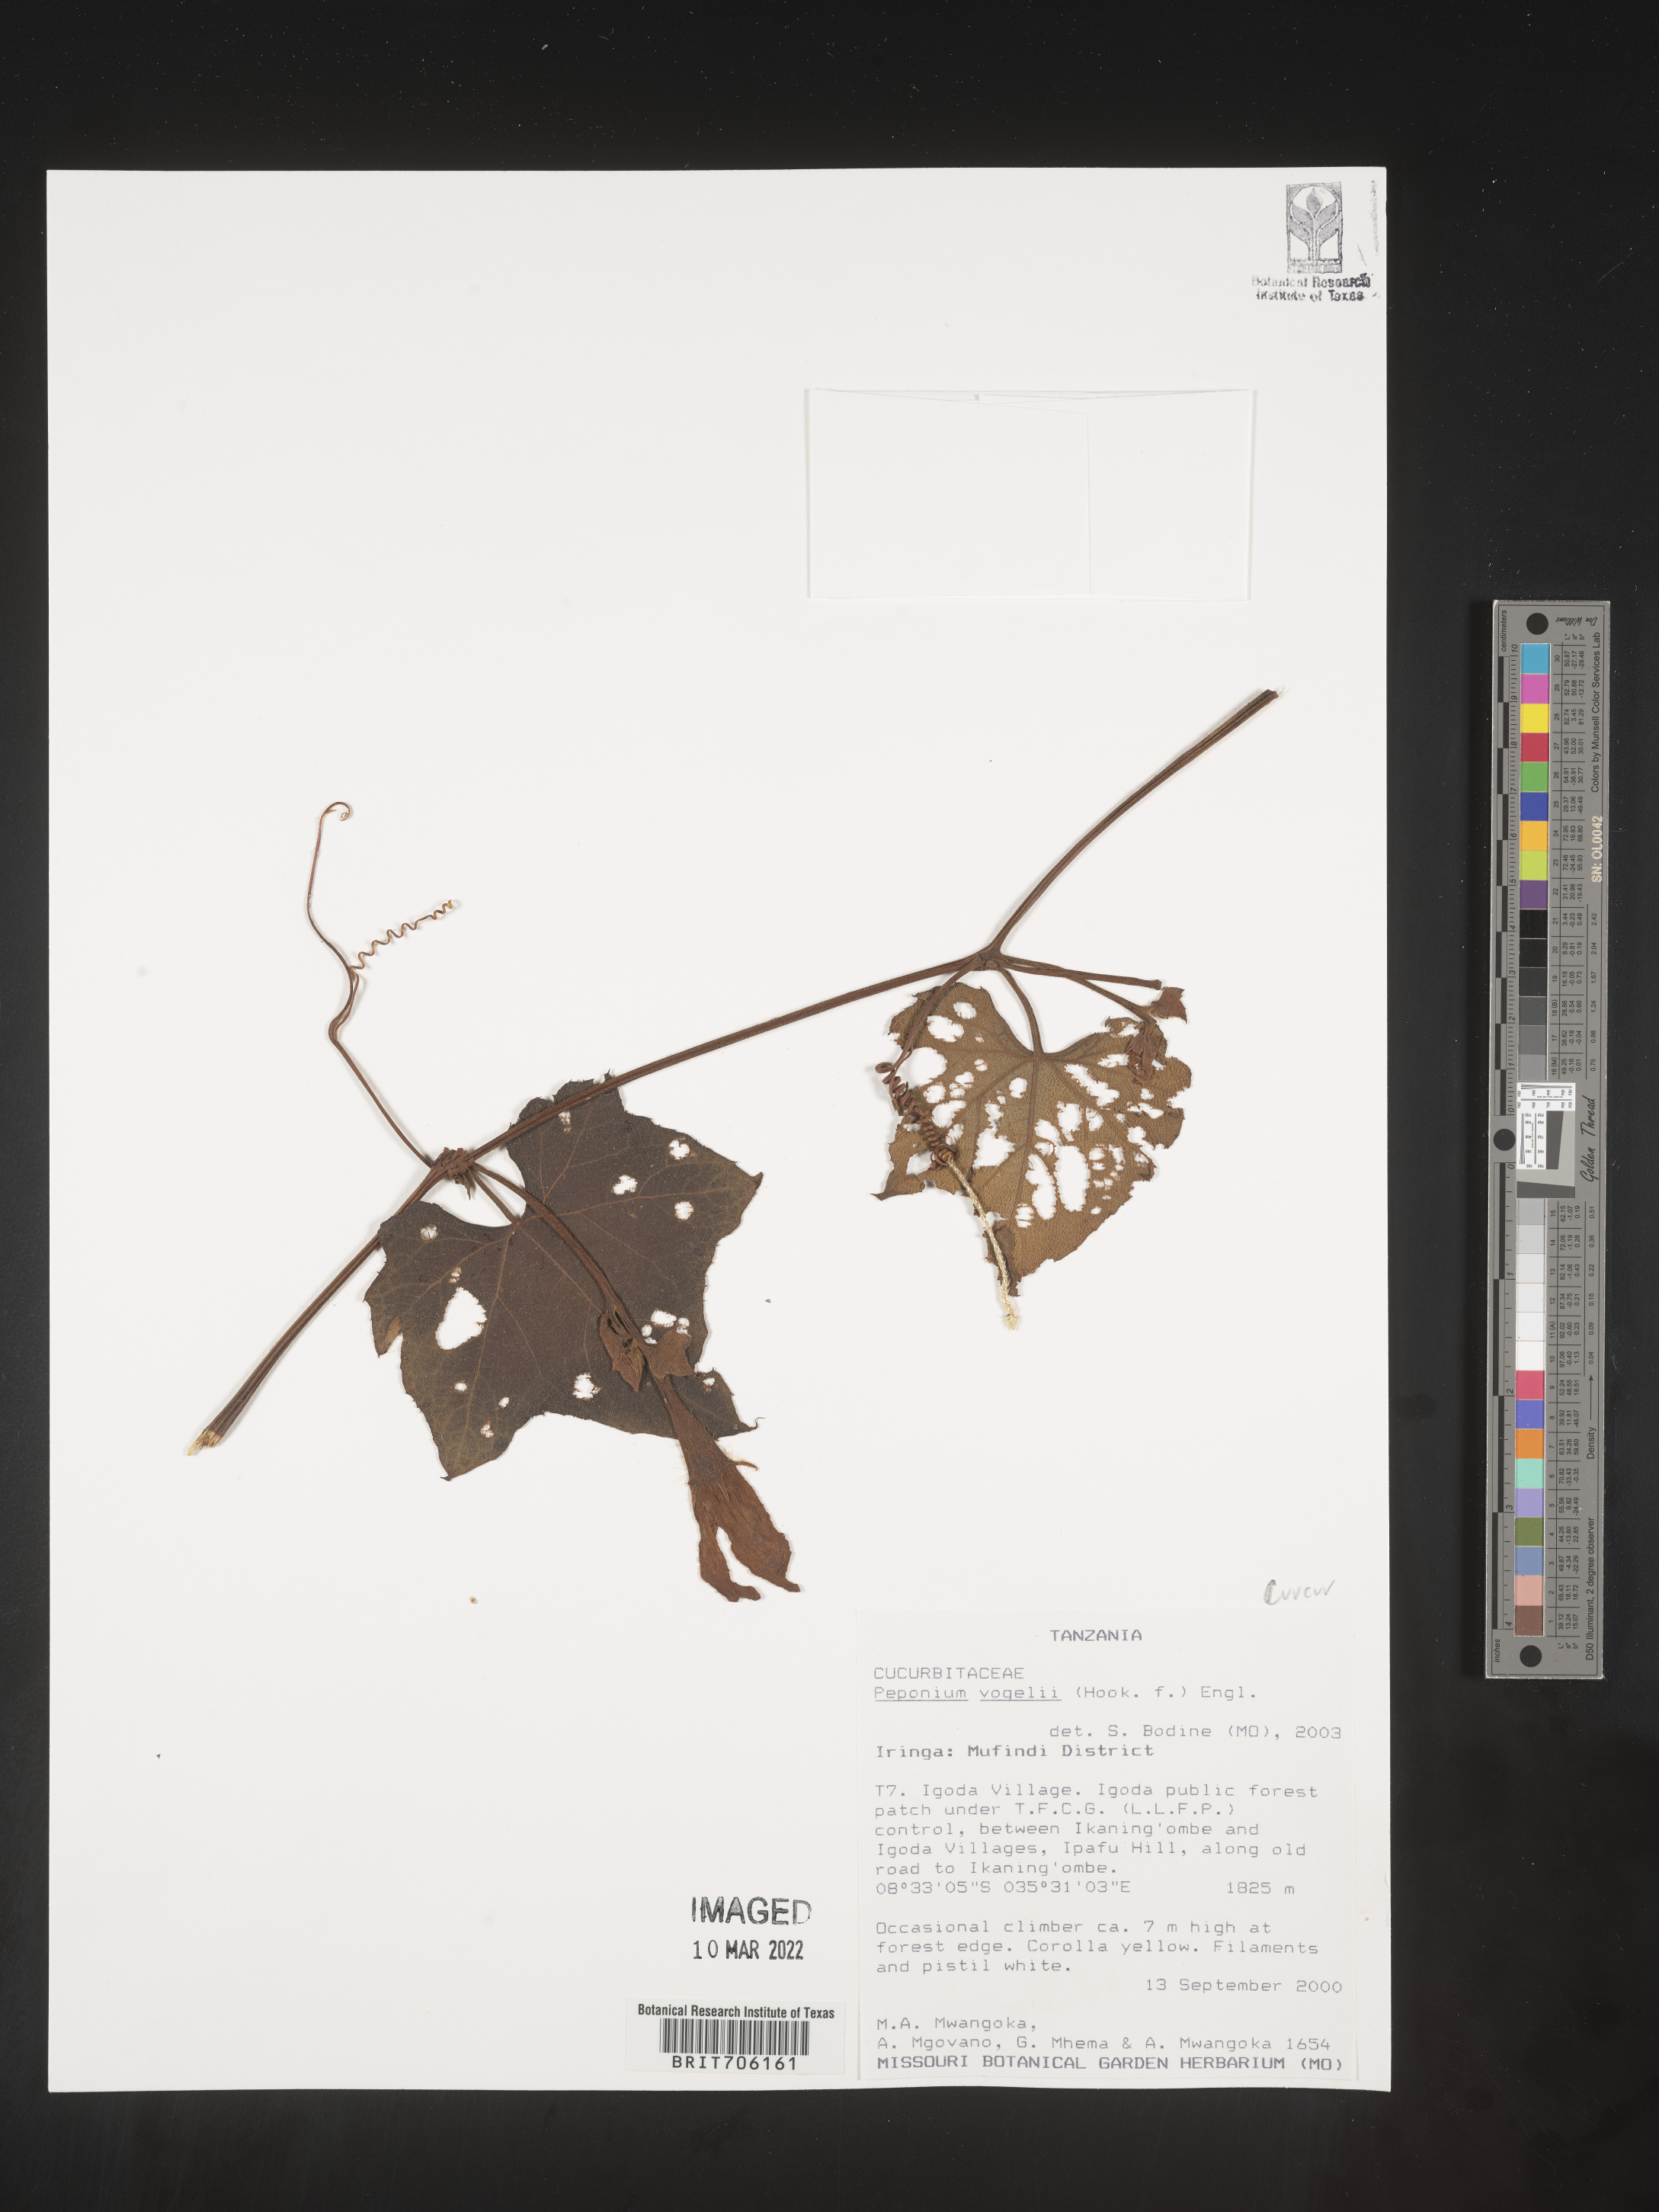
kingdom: Plantae
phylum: Tracheophyta
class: Magnoliopsida
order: Cucurbitales
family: Cucurbitaceae
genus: Peponium
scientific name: Peponium
